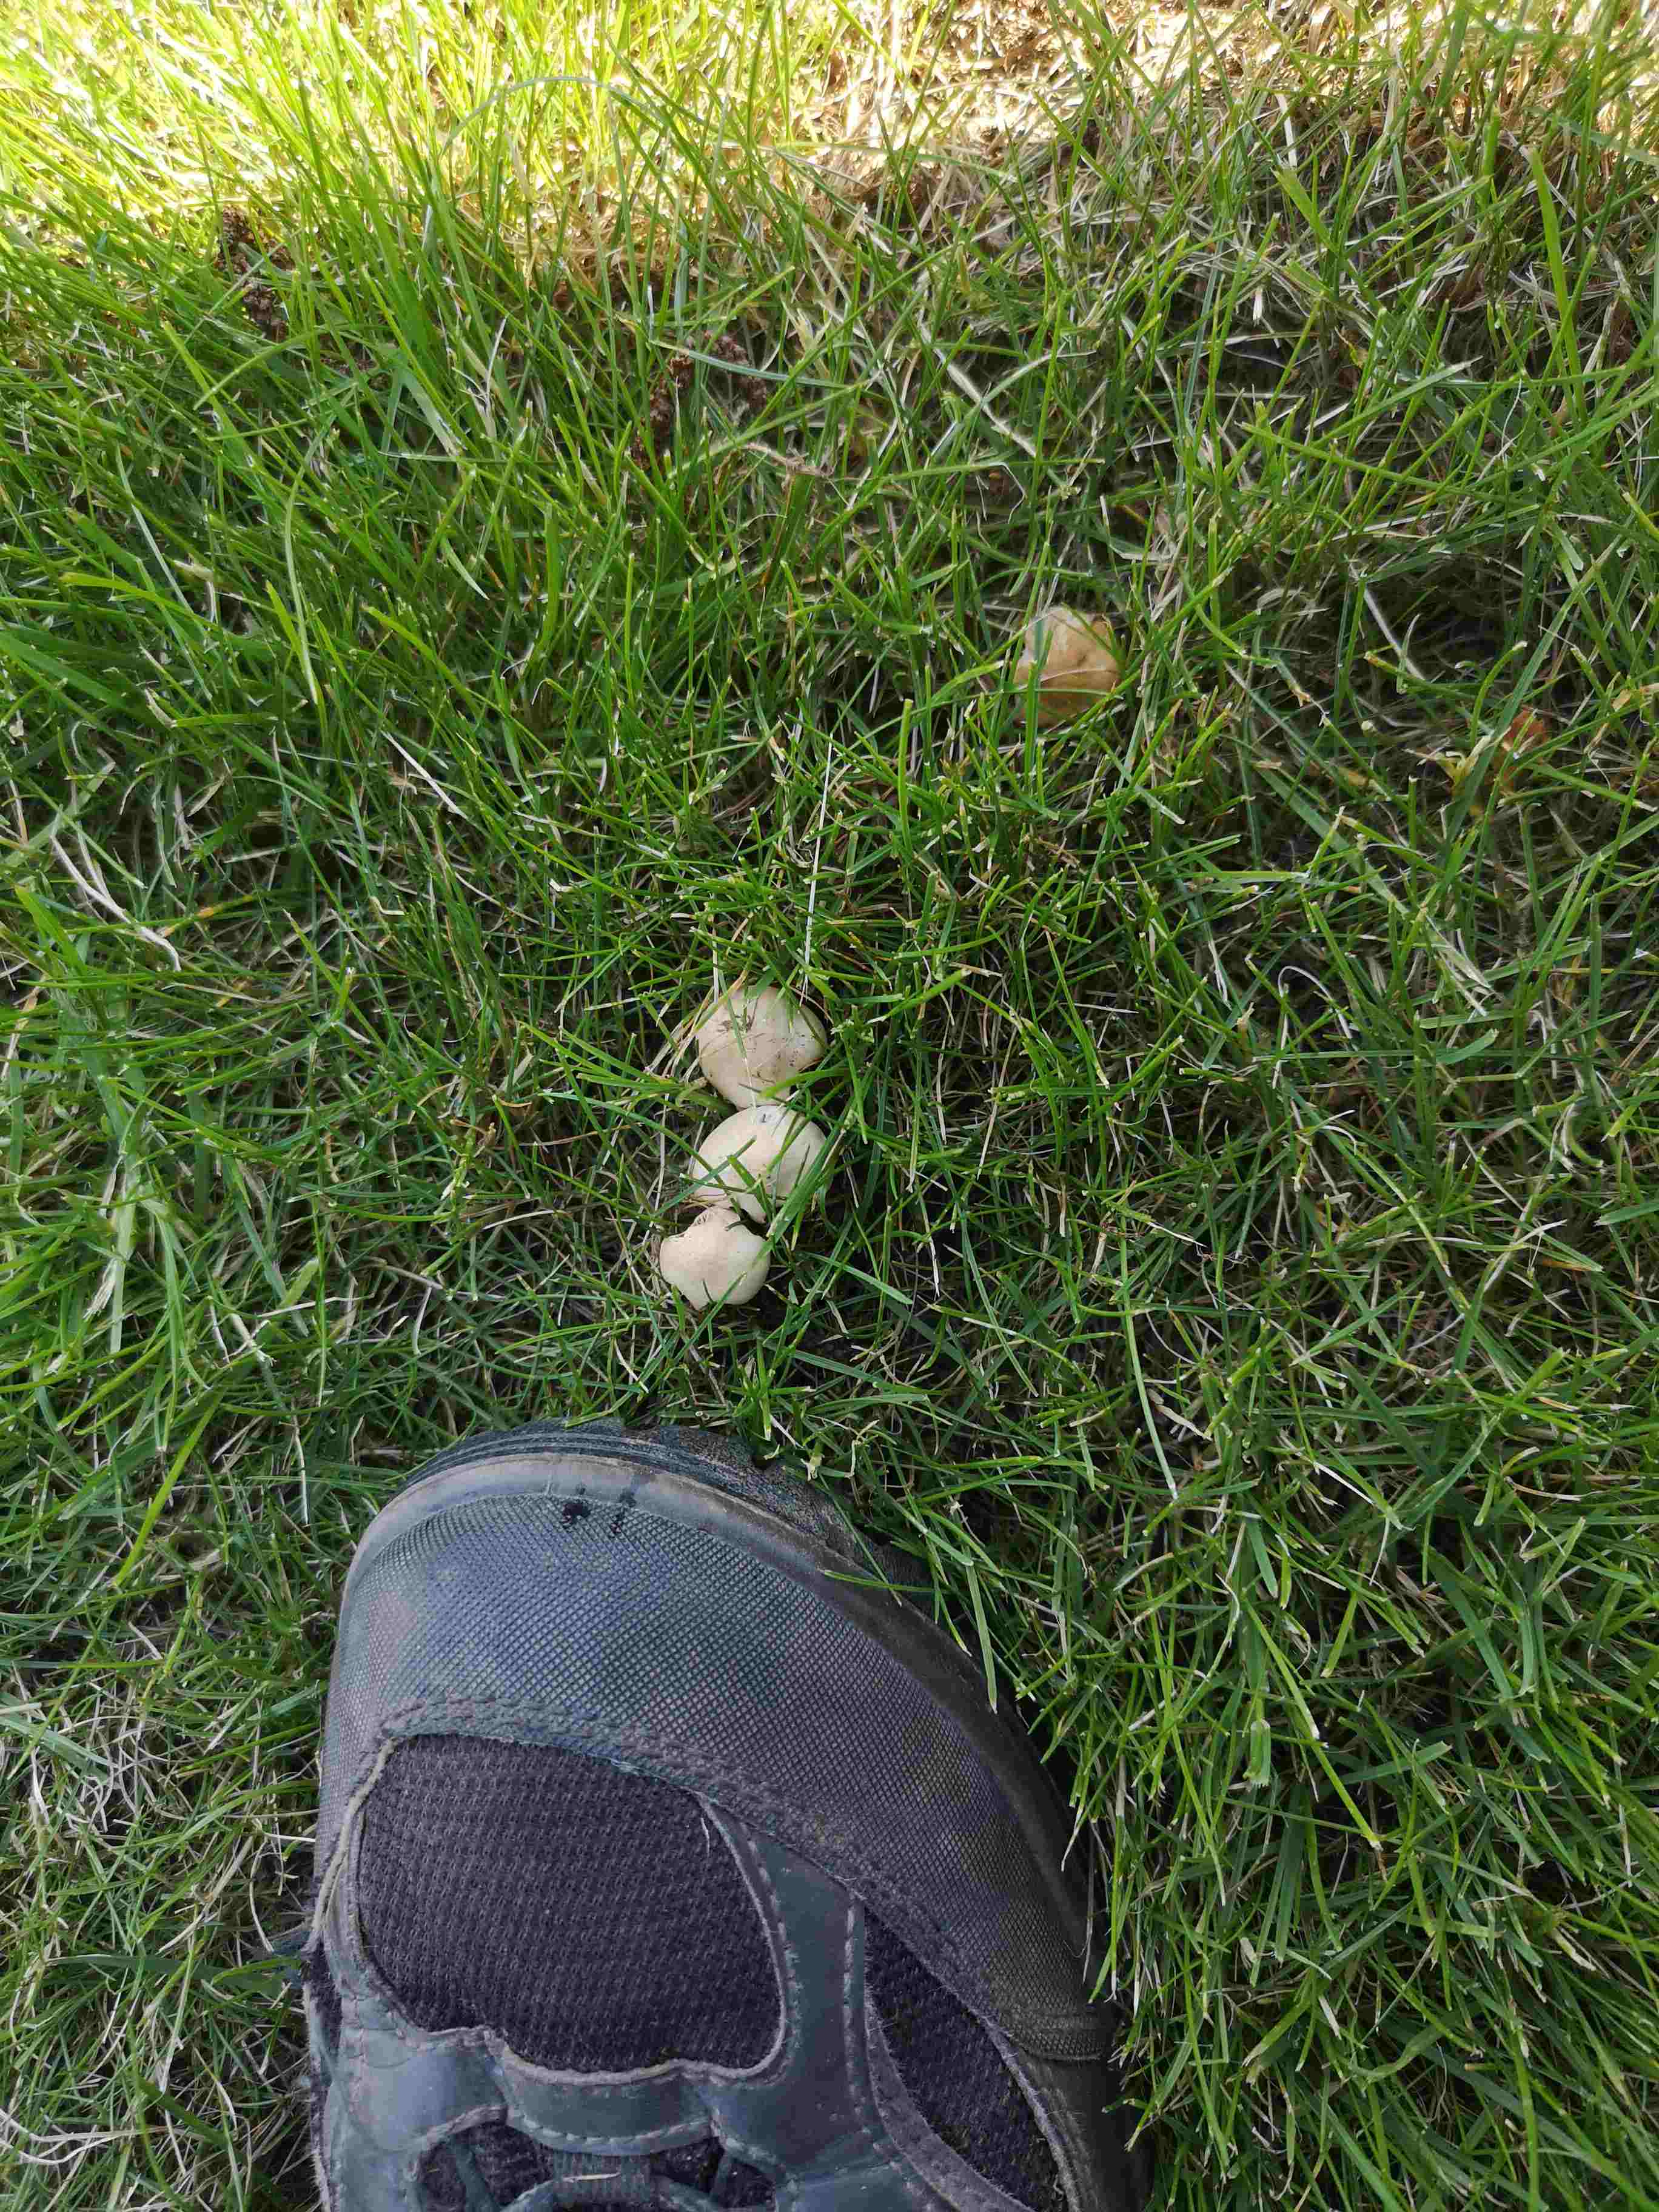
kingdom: Fungi
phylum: Basidiomycota
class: Agaricomycetes
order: Agaricales
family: Marasmiaceae
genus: Marasmius
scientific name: Marasmius oreades
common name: elledans-bruskhat
